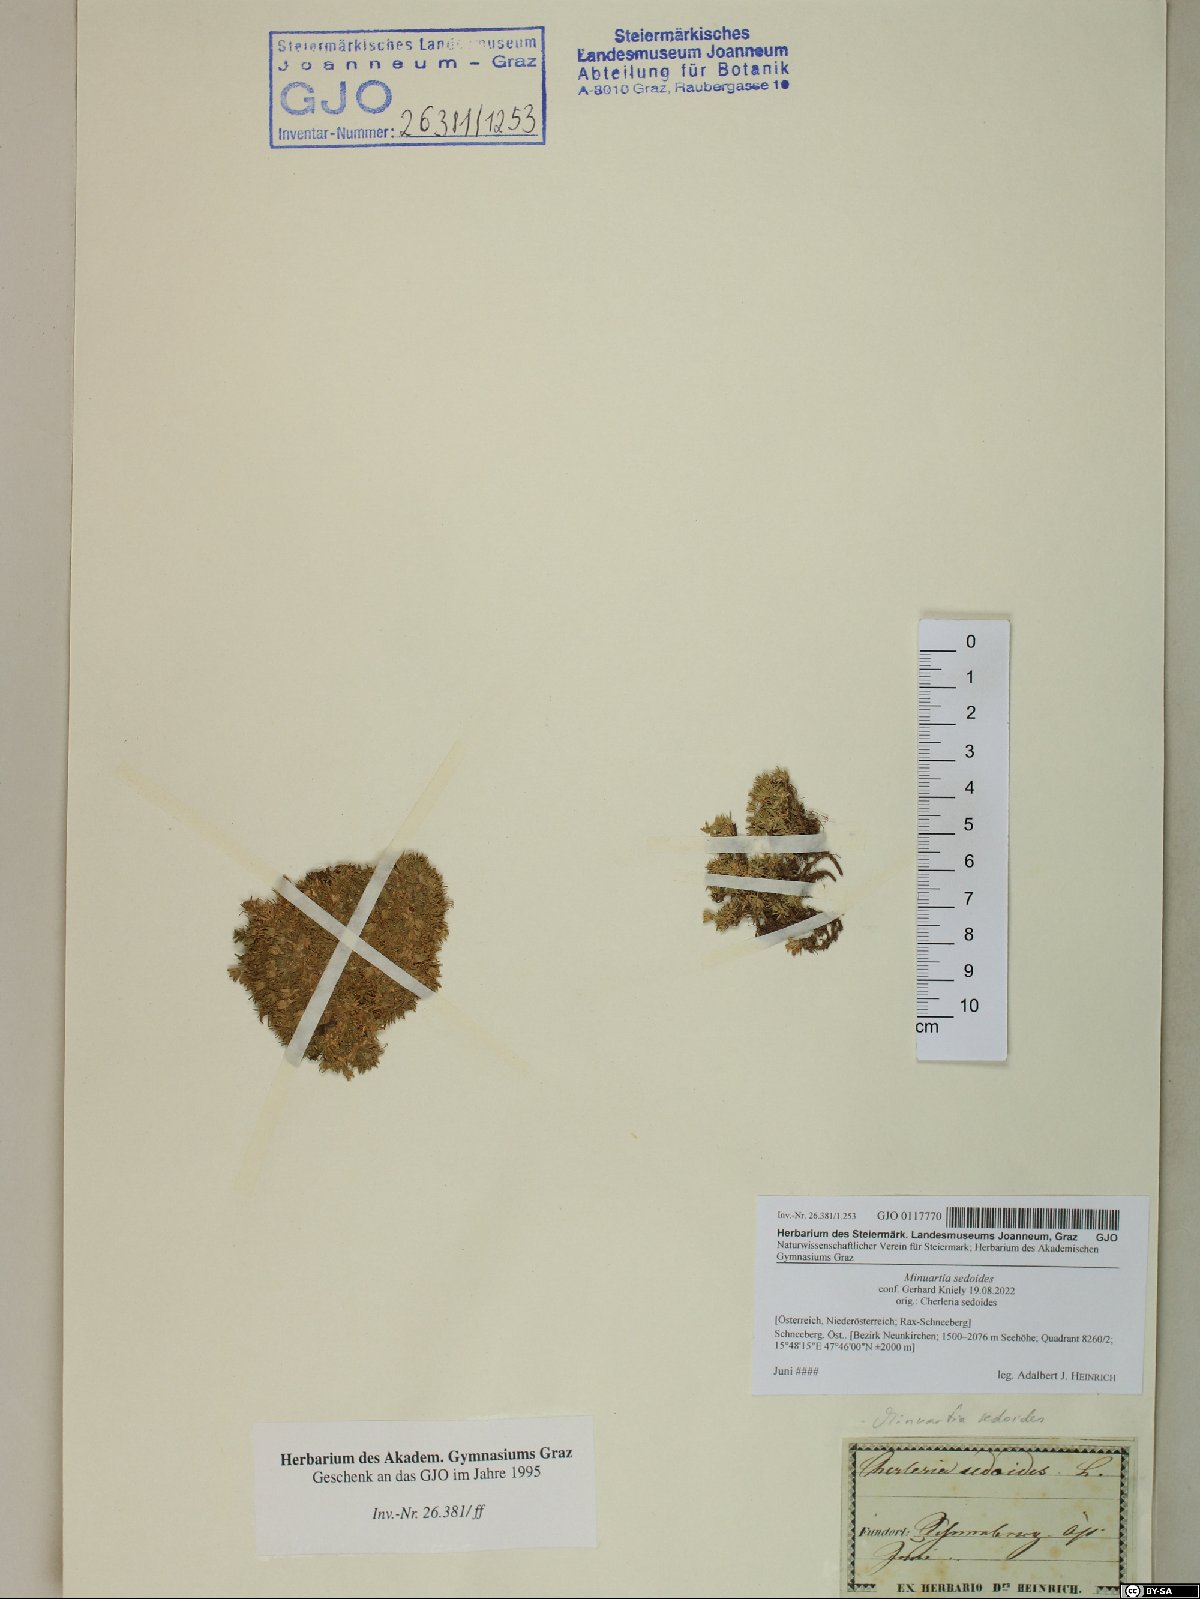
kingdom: Plantae
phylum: Tracheophyta
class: Magnoliopsida
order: Caryophyllales
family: Caryophyllaceae
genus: Cherleria
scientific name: Cherleria sedoides
